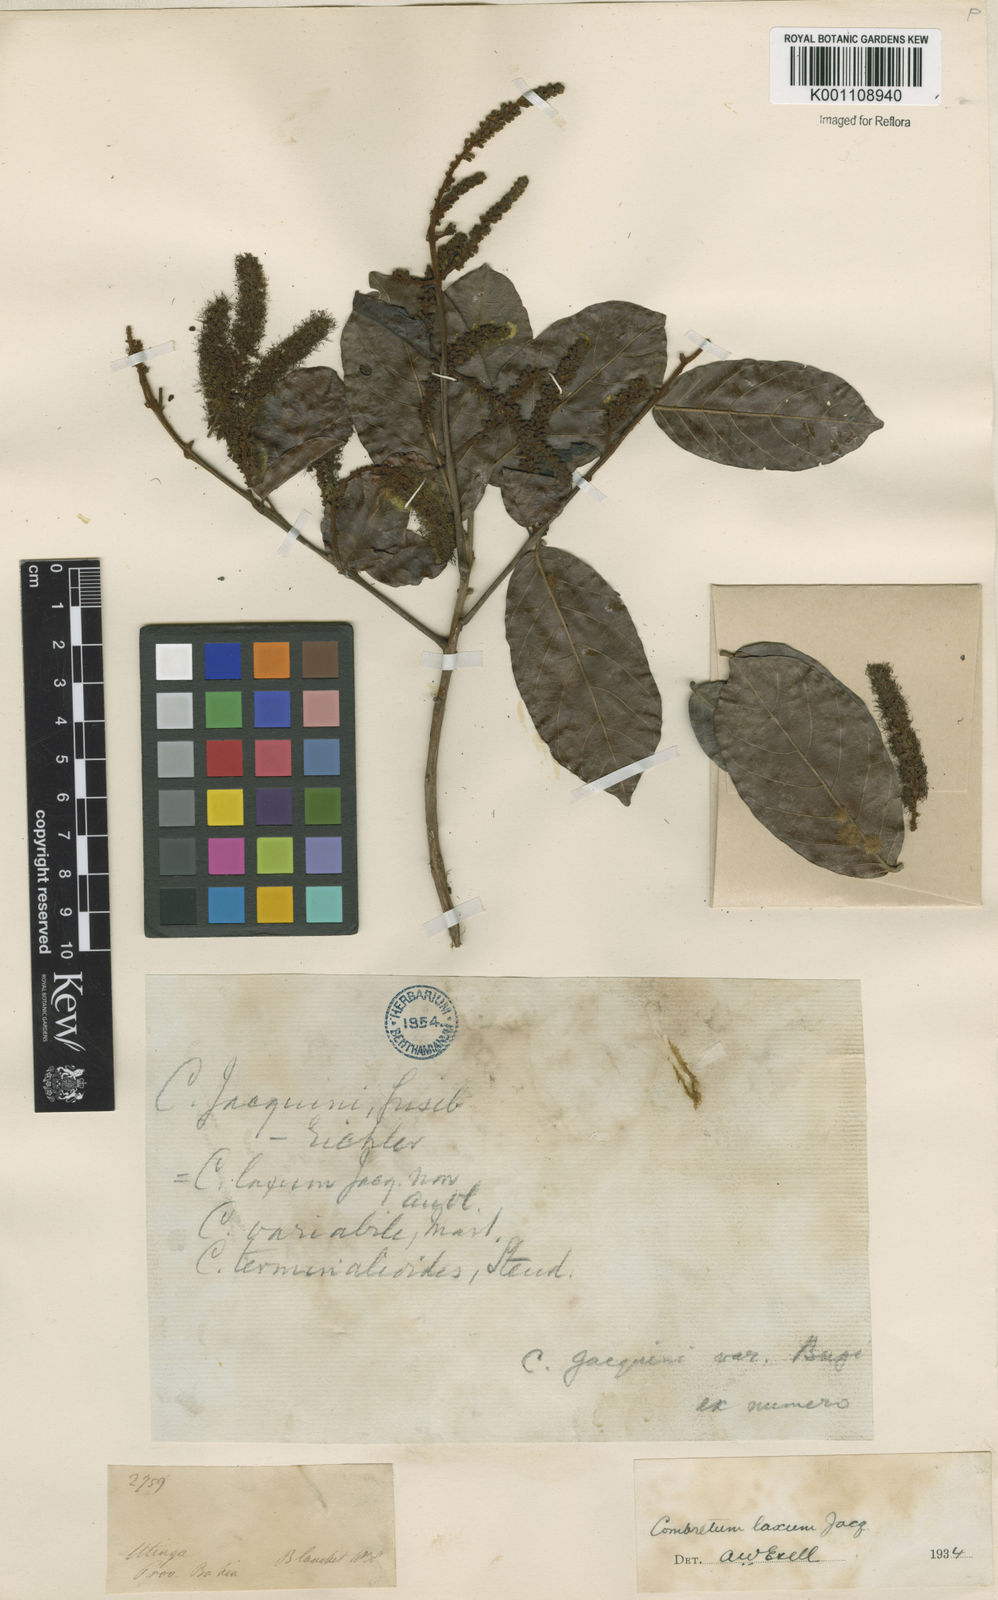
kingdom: Plantae
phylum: Tracheophyta
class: Magnoliopsida
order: Myrtales
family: Combretaceae
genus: Combretum
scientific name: Combretum laxum
